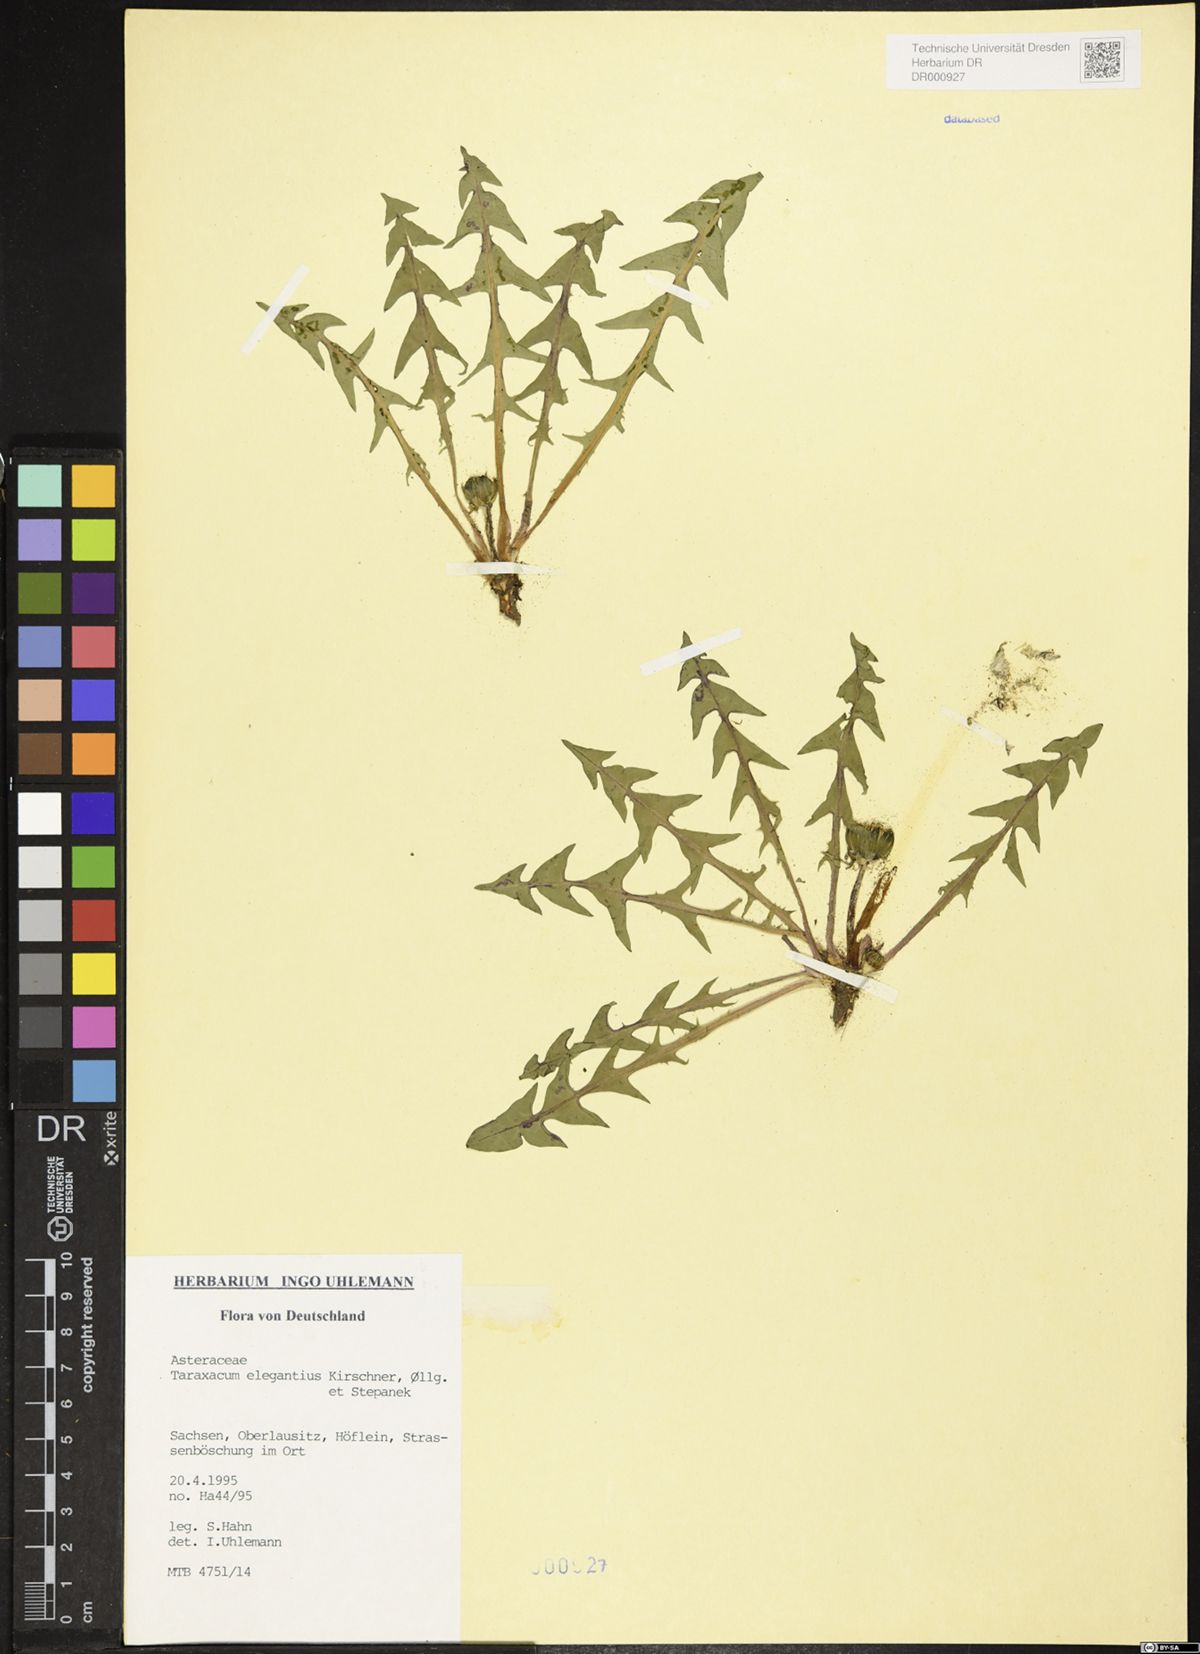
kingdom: Plantae
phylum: Tracheophyta
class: Magnoliopsida
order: Asterales
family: Asteraceae
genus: Taraxacum
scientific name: Taraxacum elegantius
